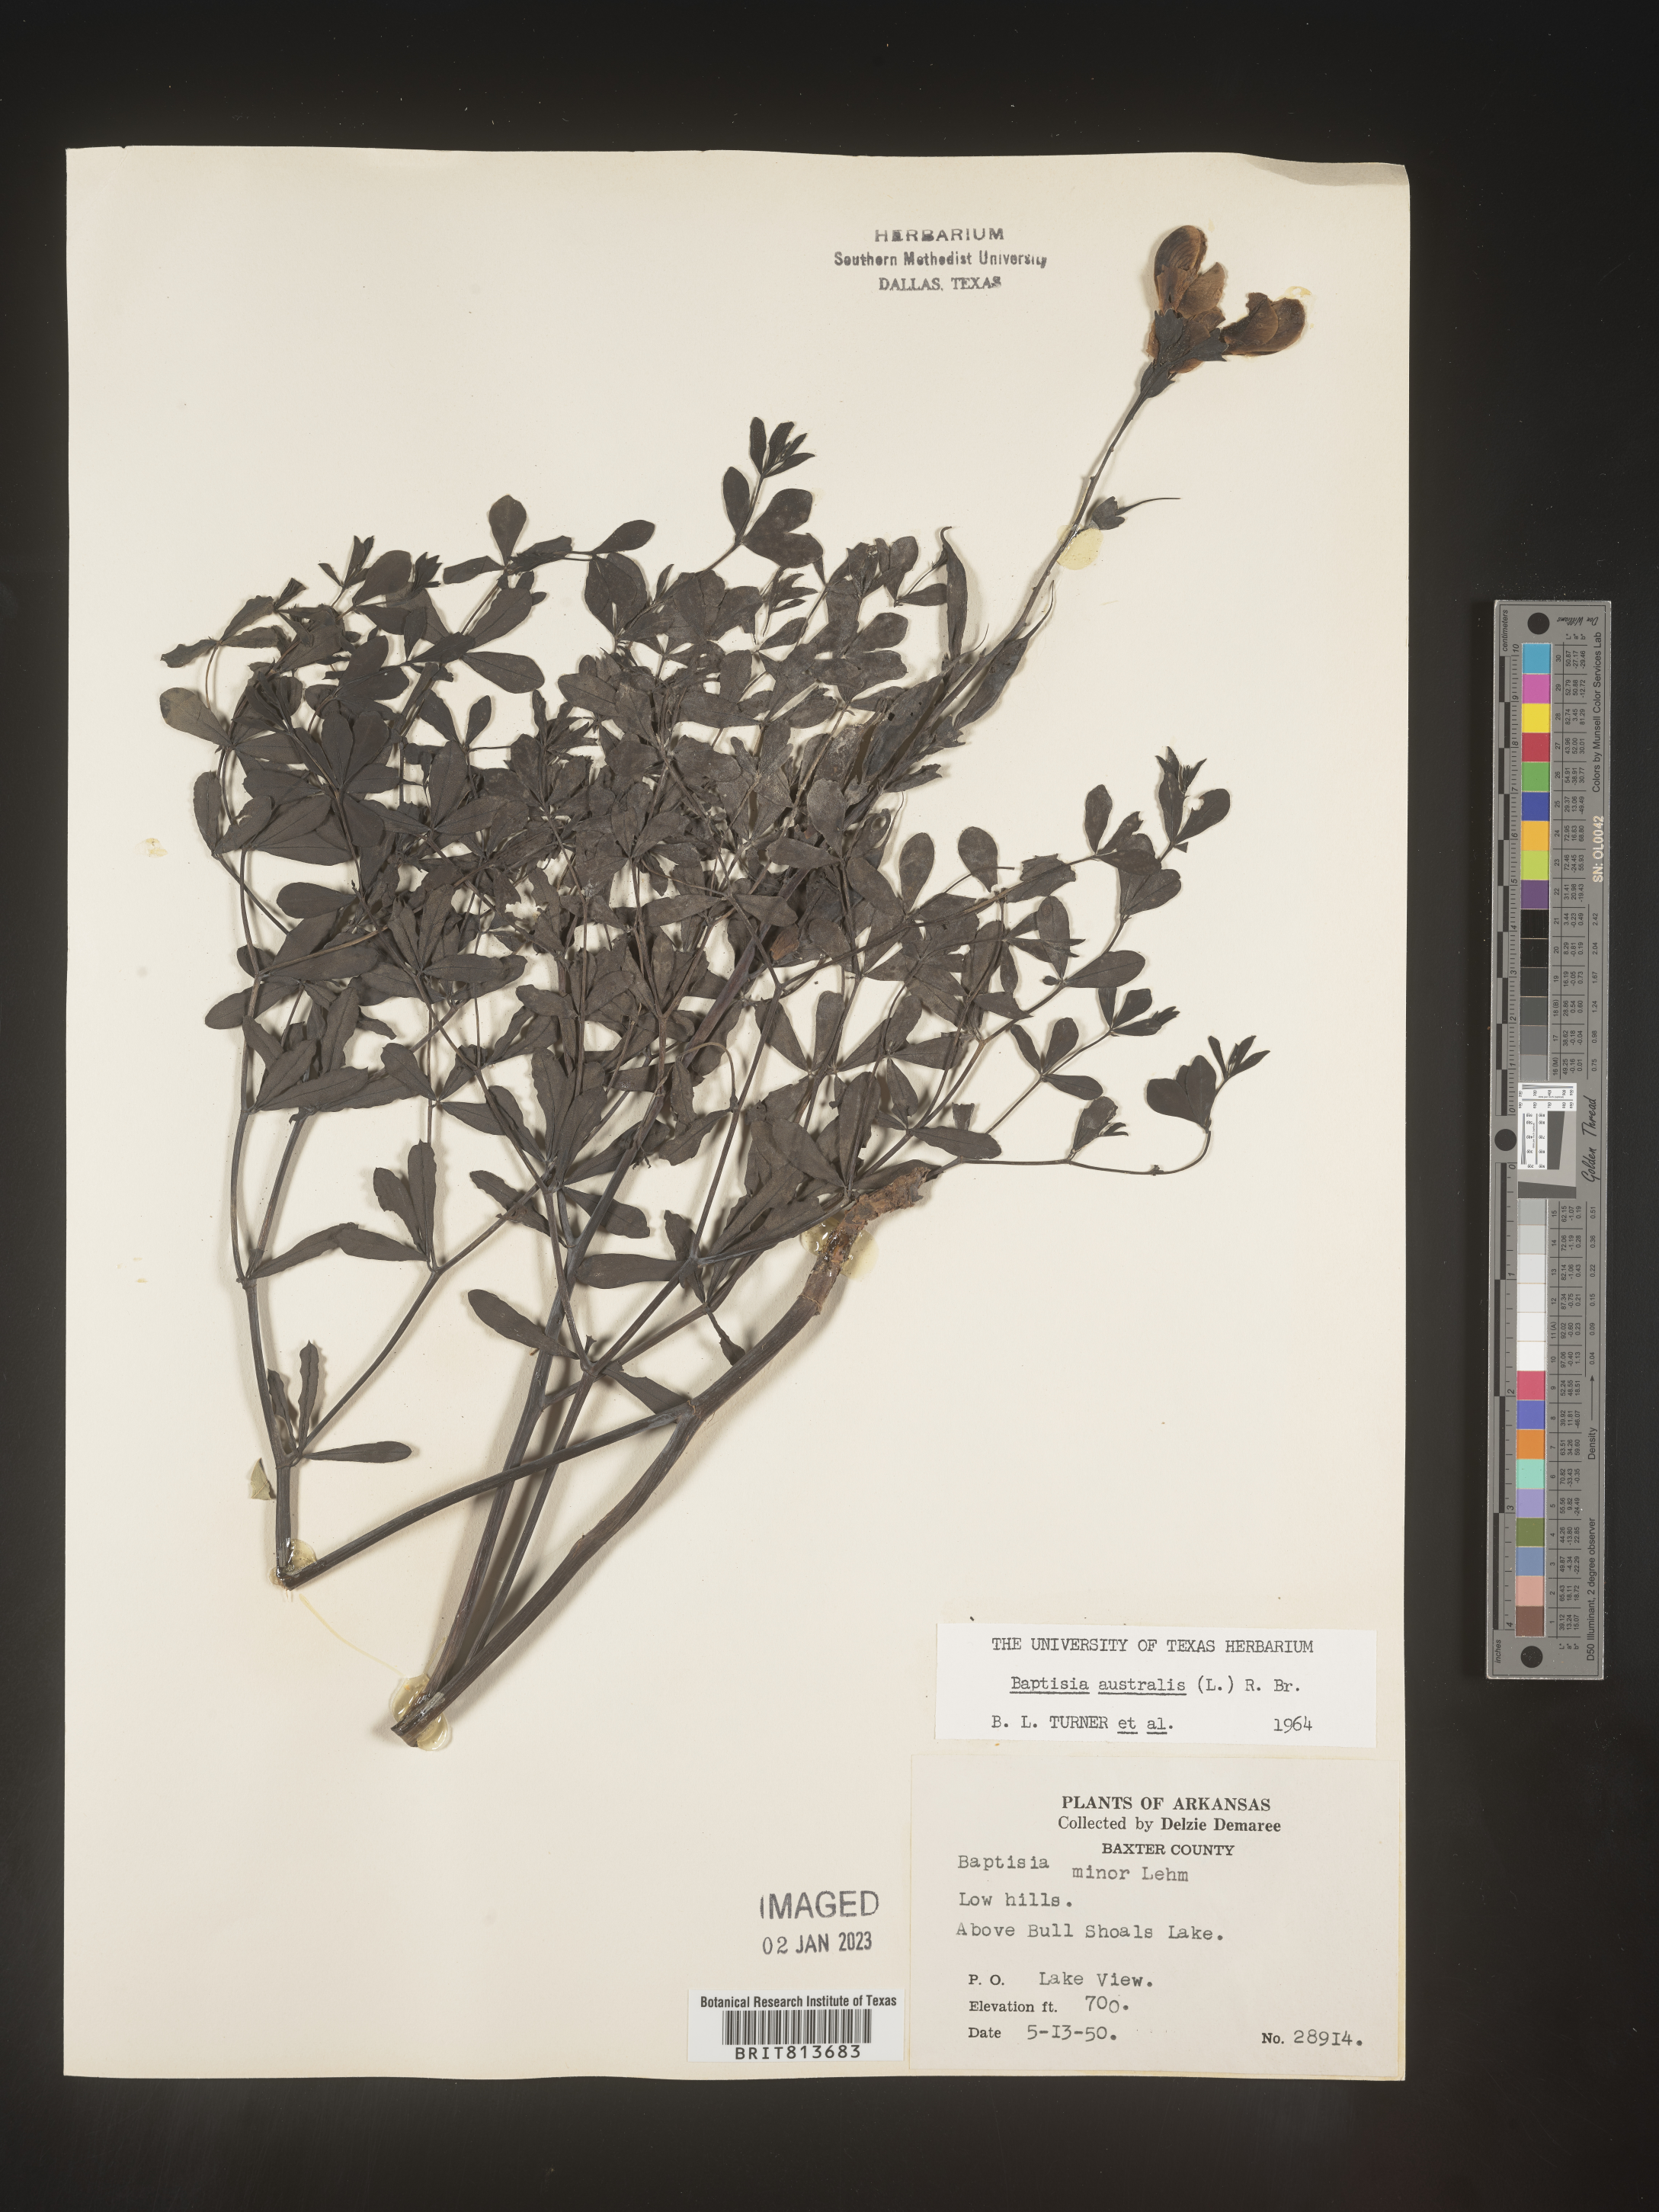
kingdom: Plantae
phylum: Tracheophyta
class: Magnoliopsida
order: Fabales
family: Fabaceae
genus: Baptisia
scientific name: Baptisia australis
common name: Blue false indigo
